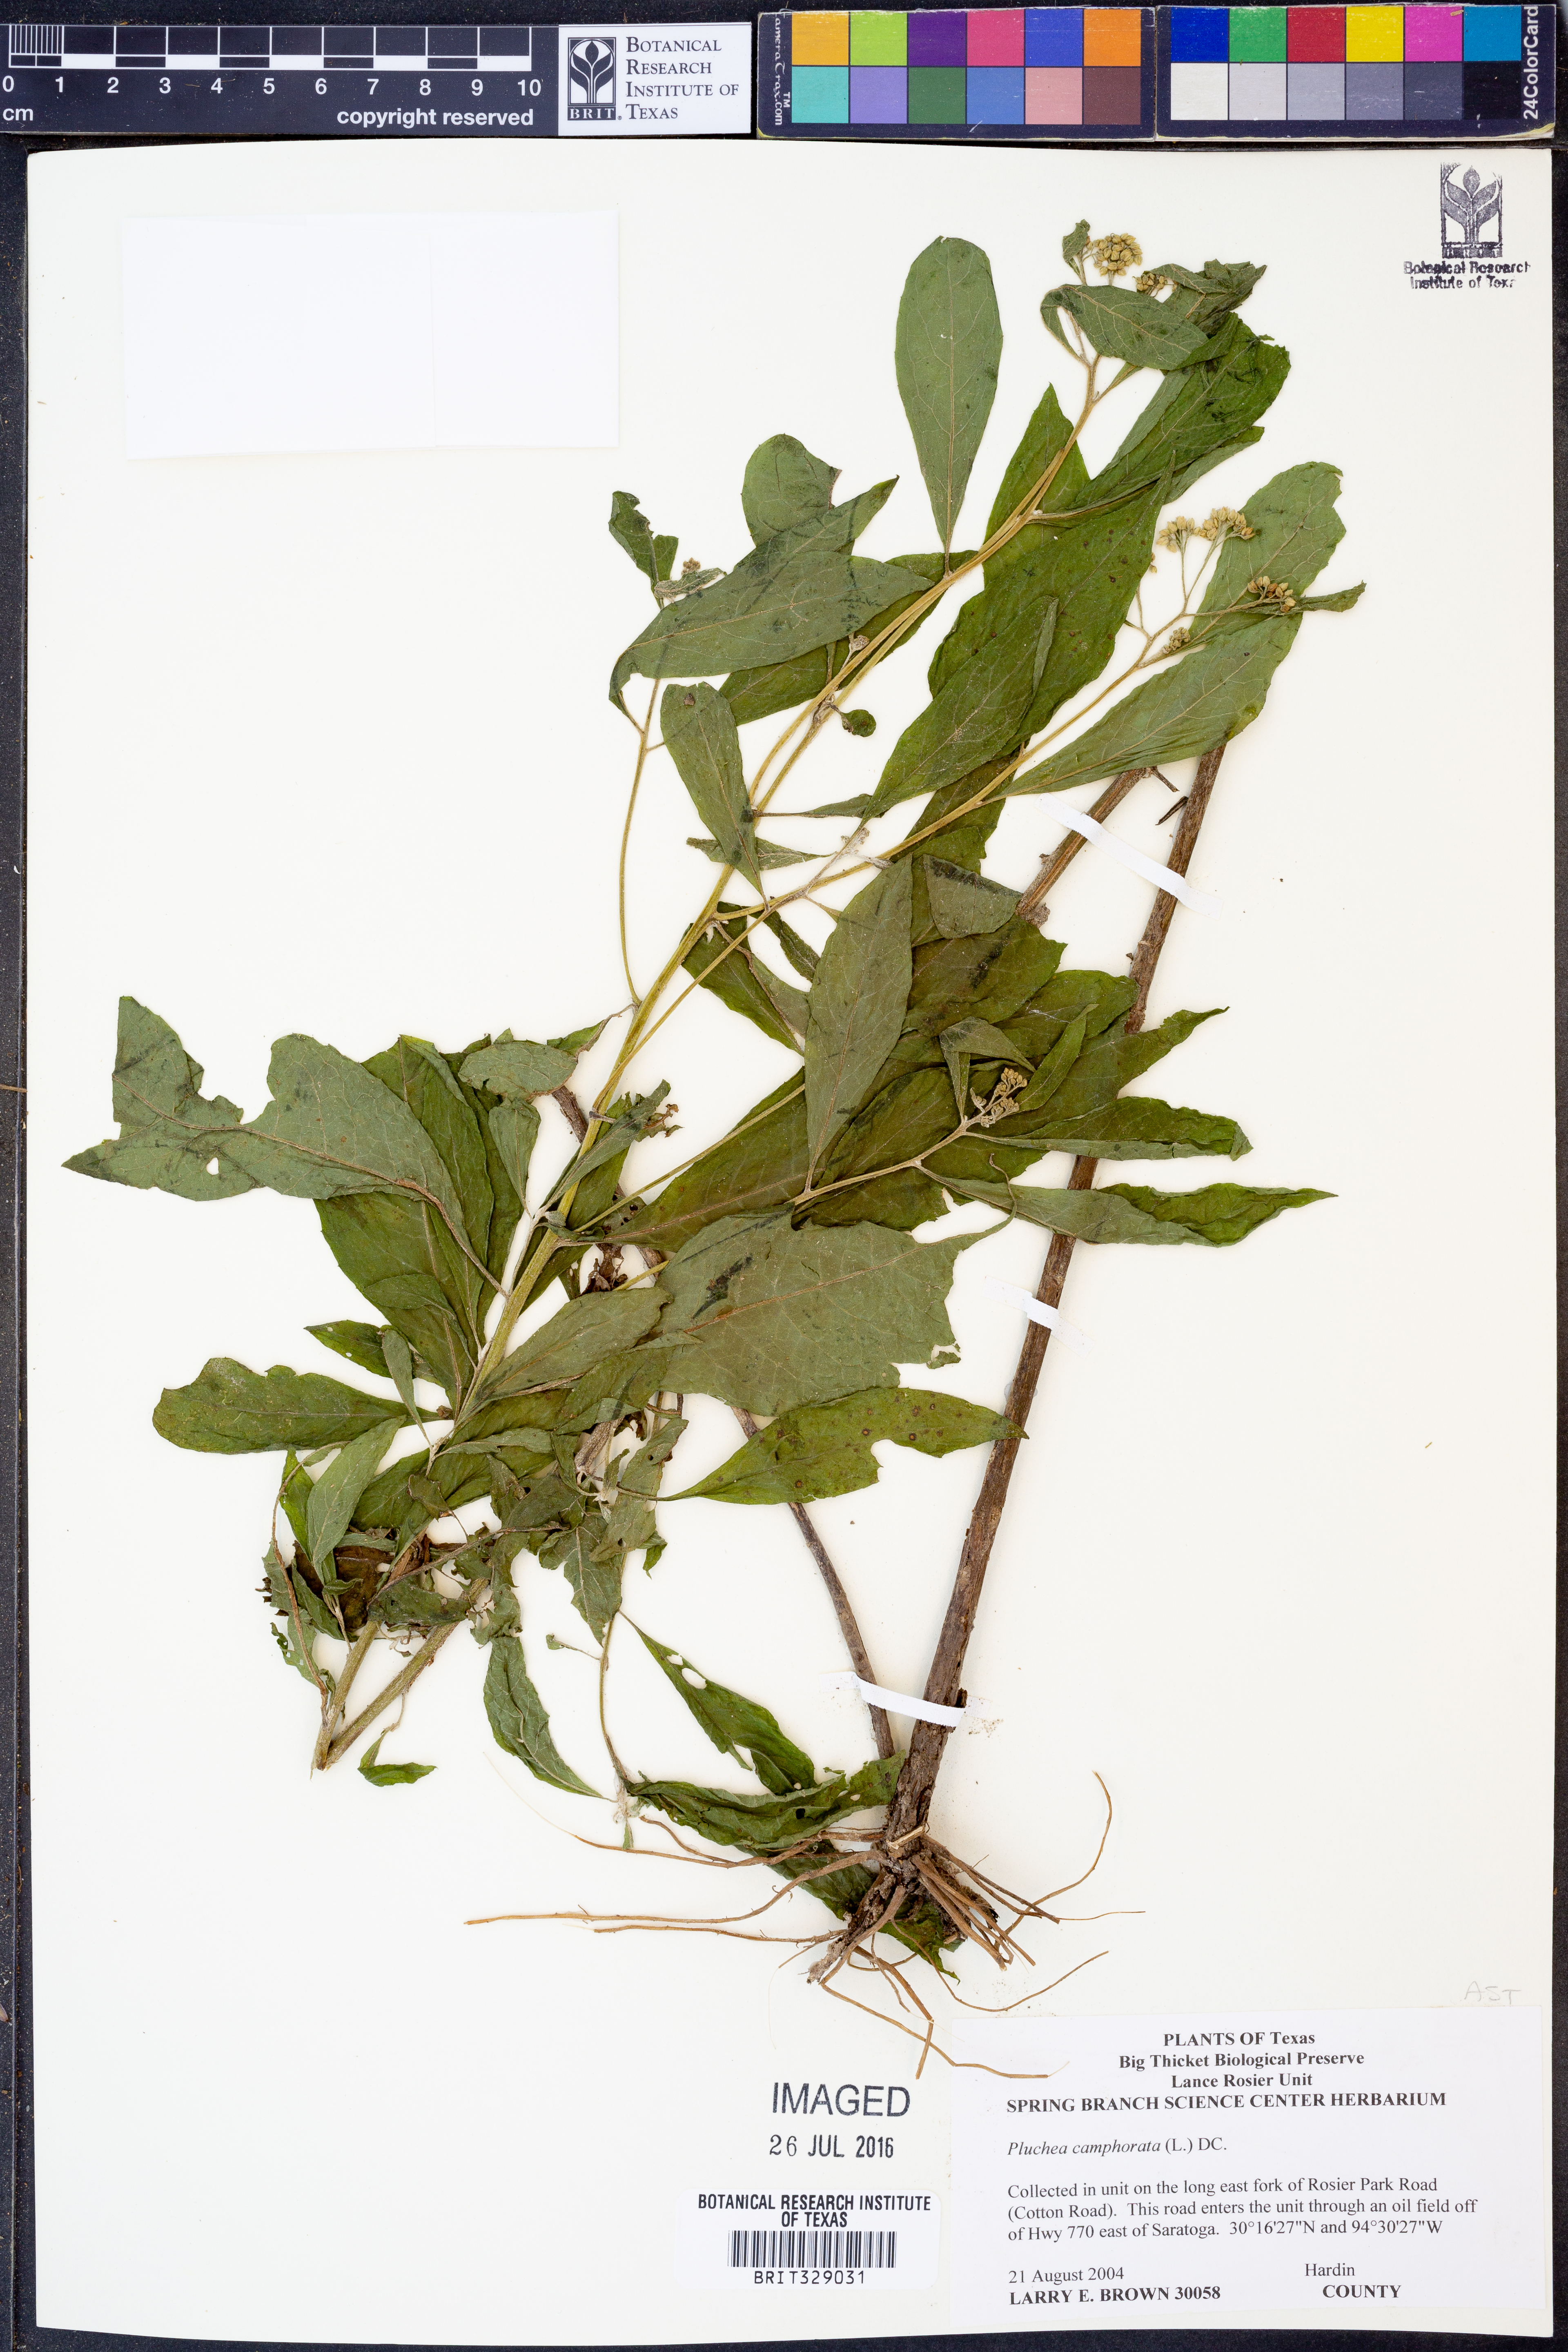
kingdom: Plantae
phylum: Tracheophyta
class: Magnoliopsida
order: Asterales
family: Asteraceae
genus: Pluchea
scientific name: Pluchea camphorata
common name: Camphor pluchea
